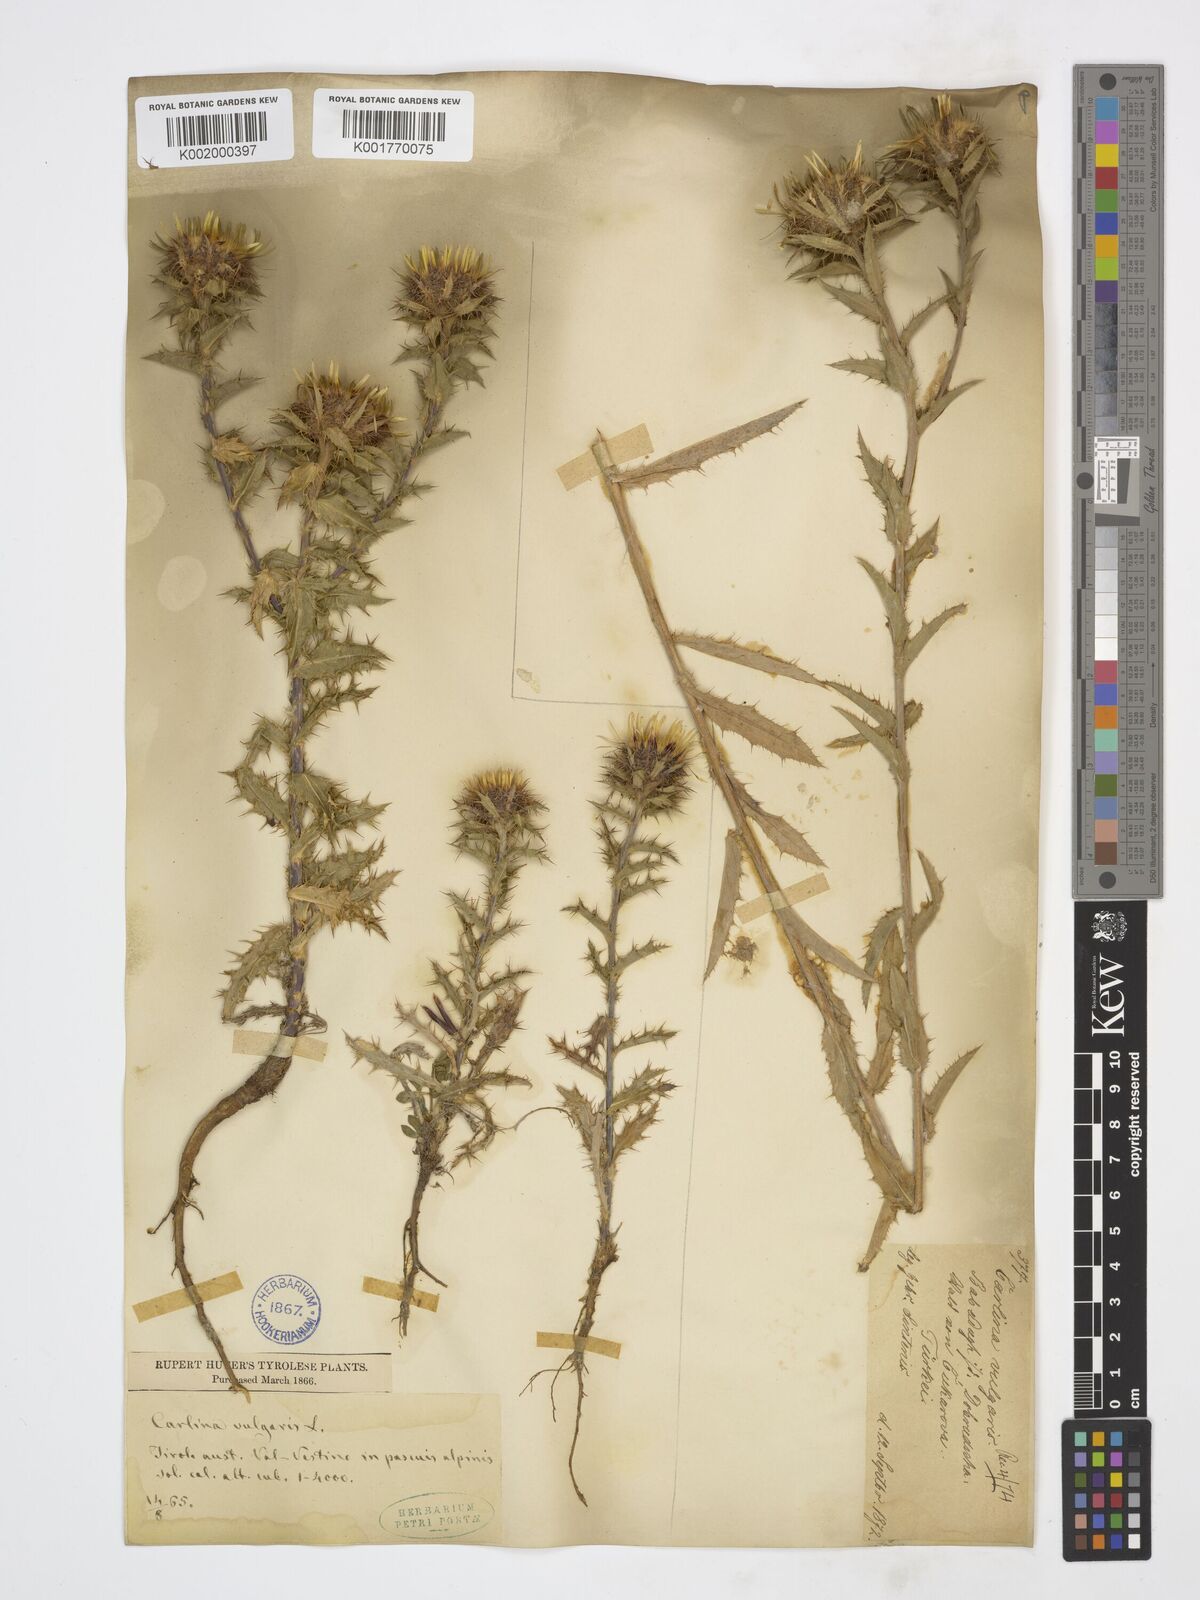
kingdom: Plantae
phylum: Tracheophyta
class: Magnoliopsida
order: Asterales
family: Asteraceae
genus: Carlina
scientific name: Carlina vulgaris
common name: Carline thistle
